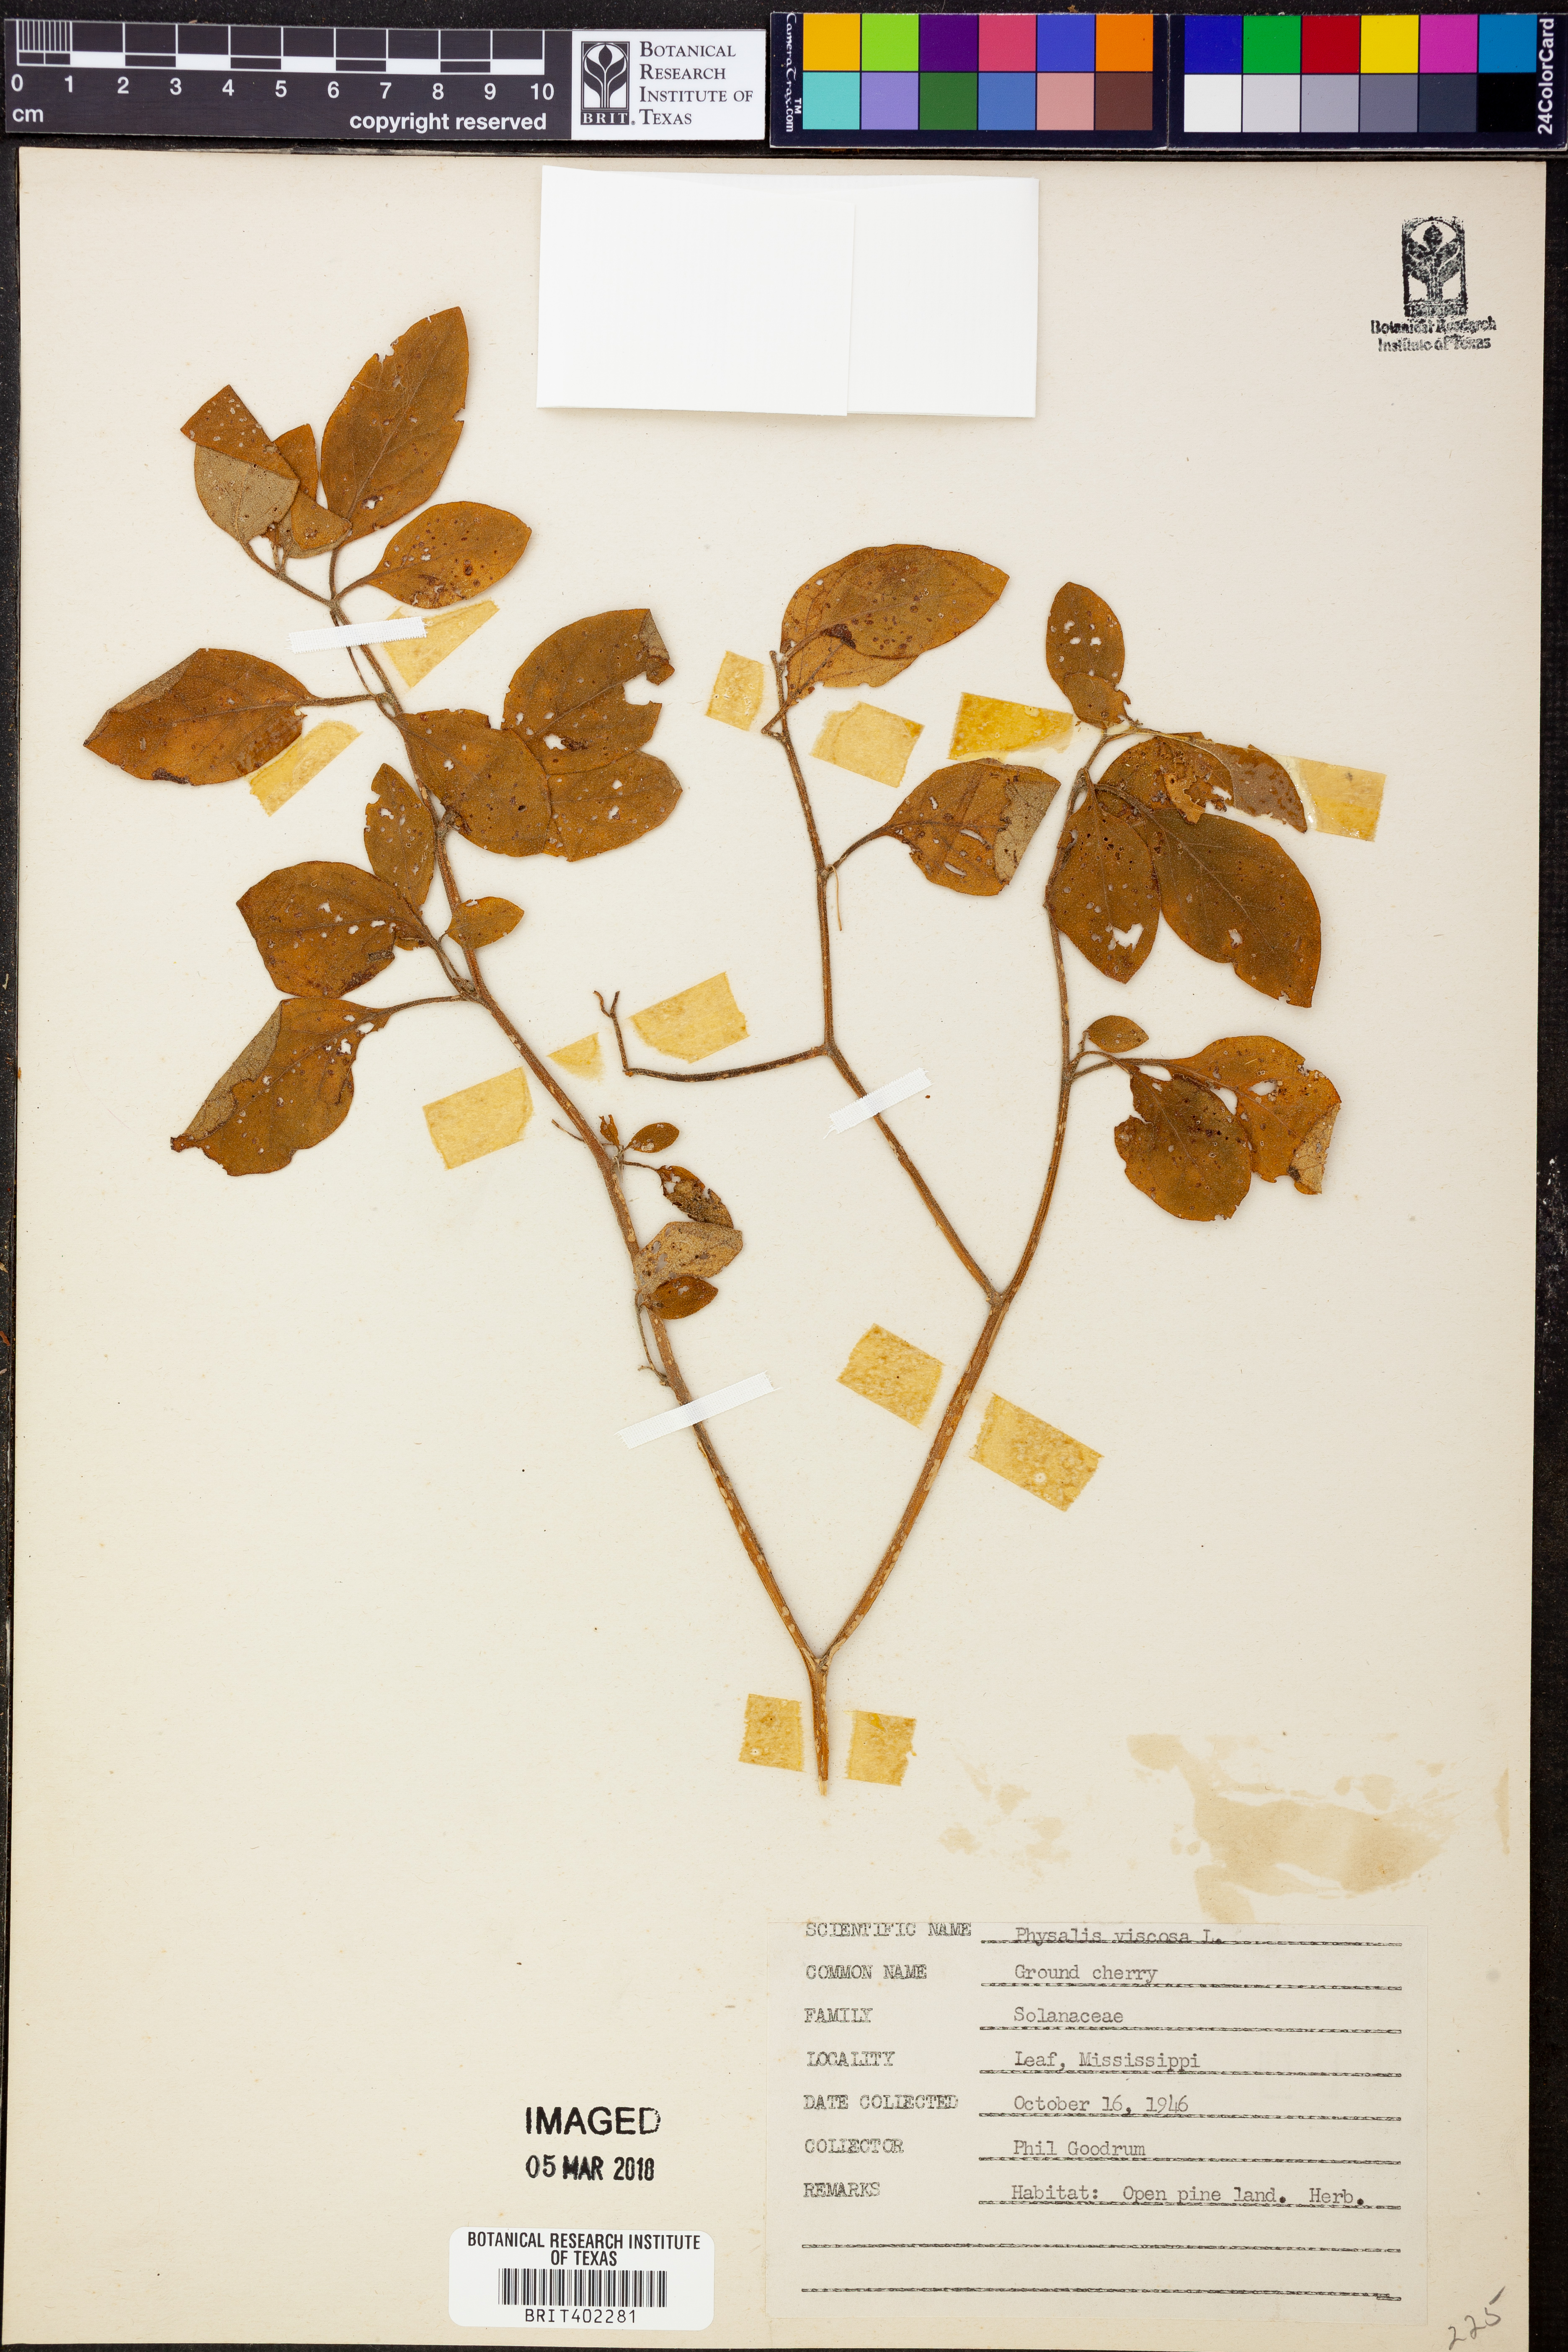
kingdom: Plantae
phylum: Tracheophyta
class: Magnoliopsida
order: Solanales
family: Solanaceae
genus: Physalis
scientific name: Physalis viscosa
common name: Stellate ground-cherry
